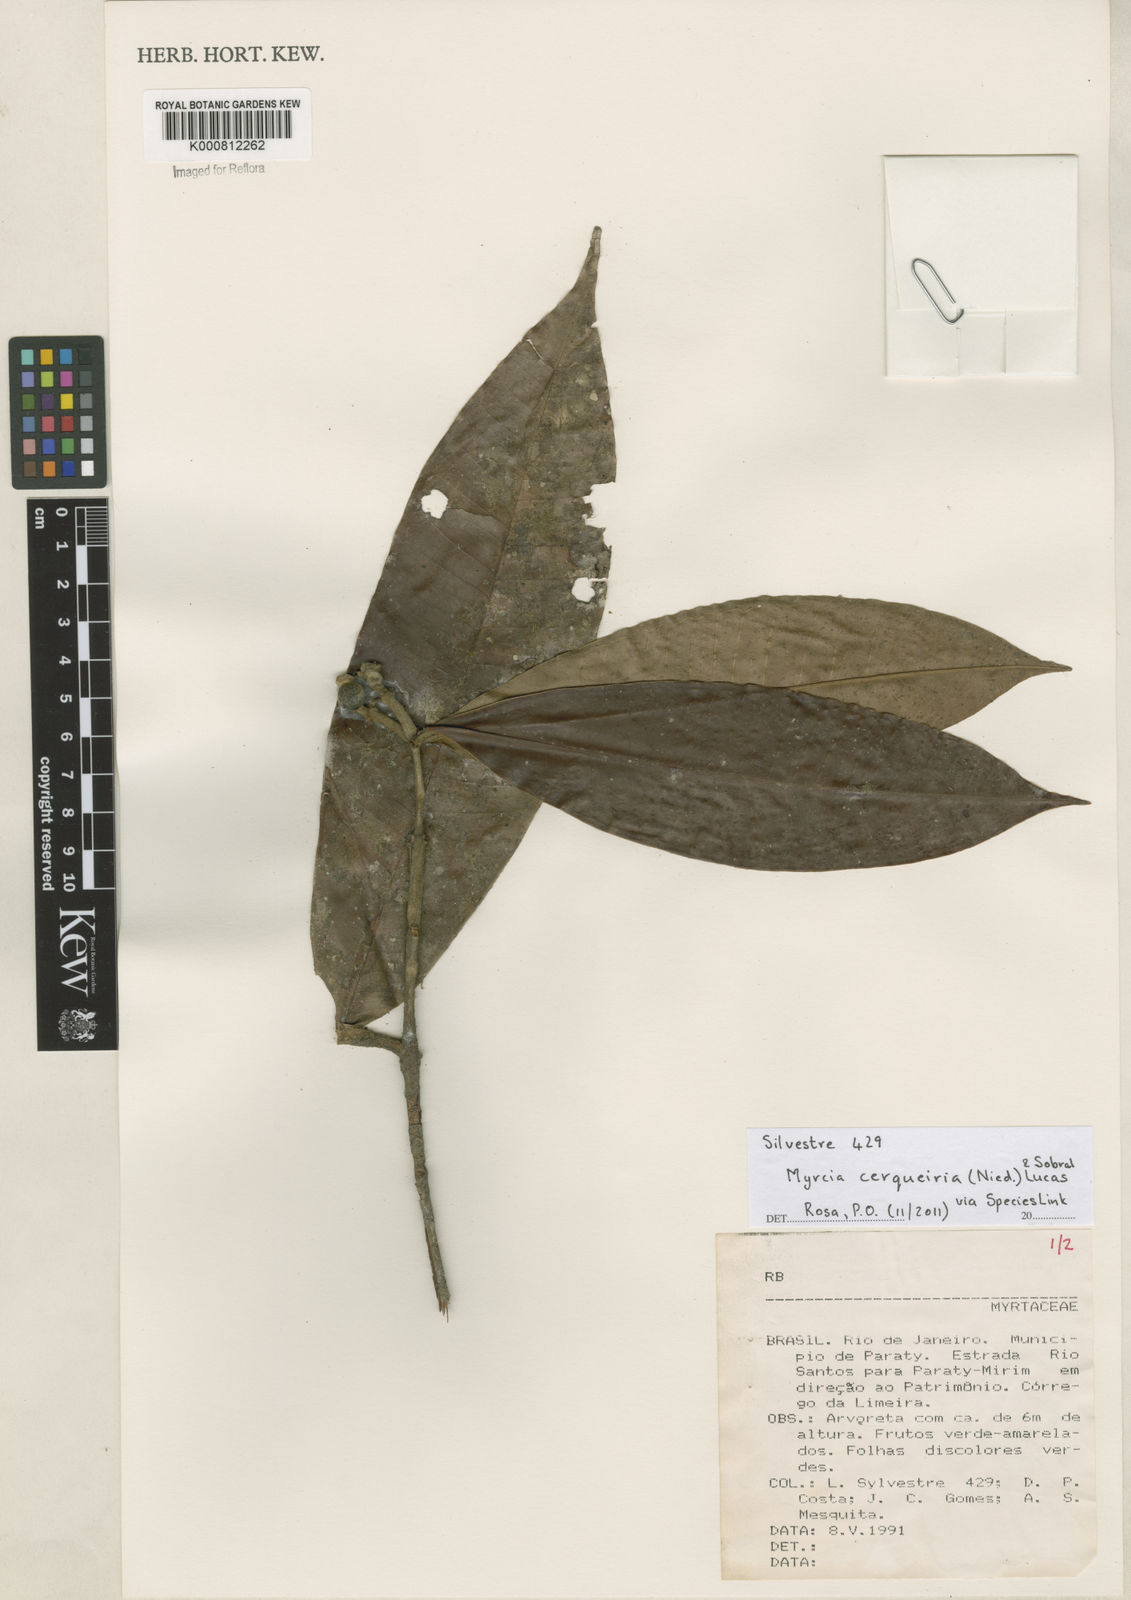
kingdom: Plantae
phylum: Tracheophyta
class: Magnoliopsida
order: Myrtales
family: Myrtaceae
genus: Myrcia
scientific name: Myrcia cerqueiria
